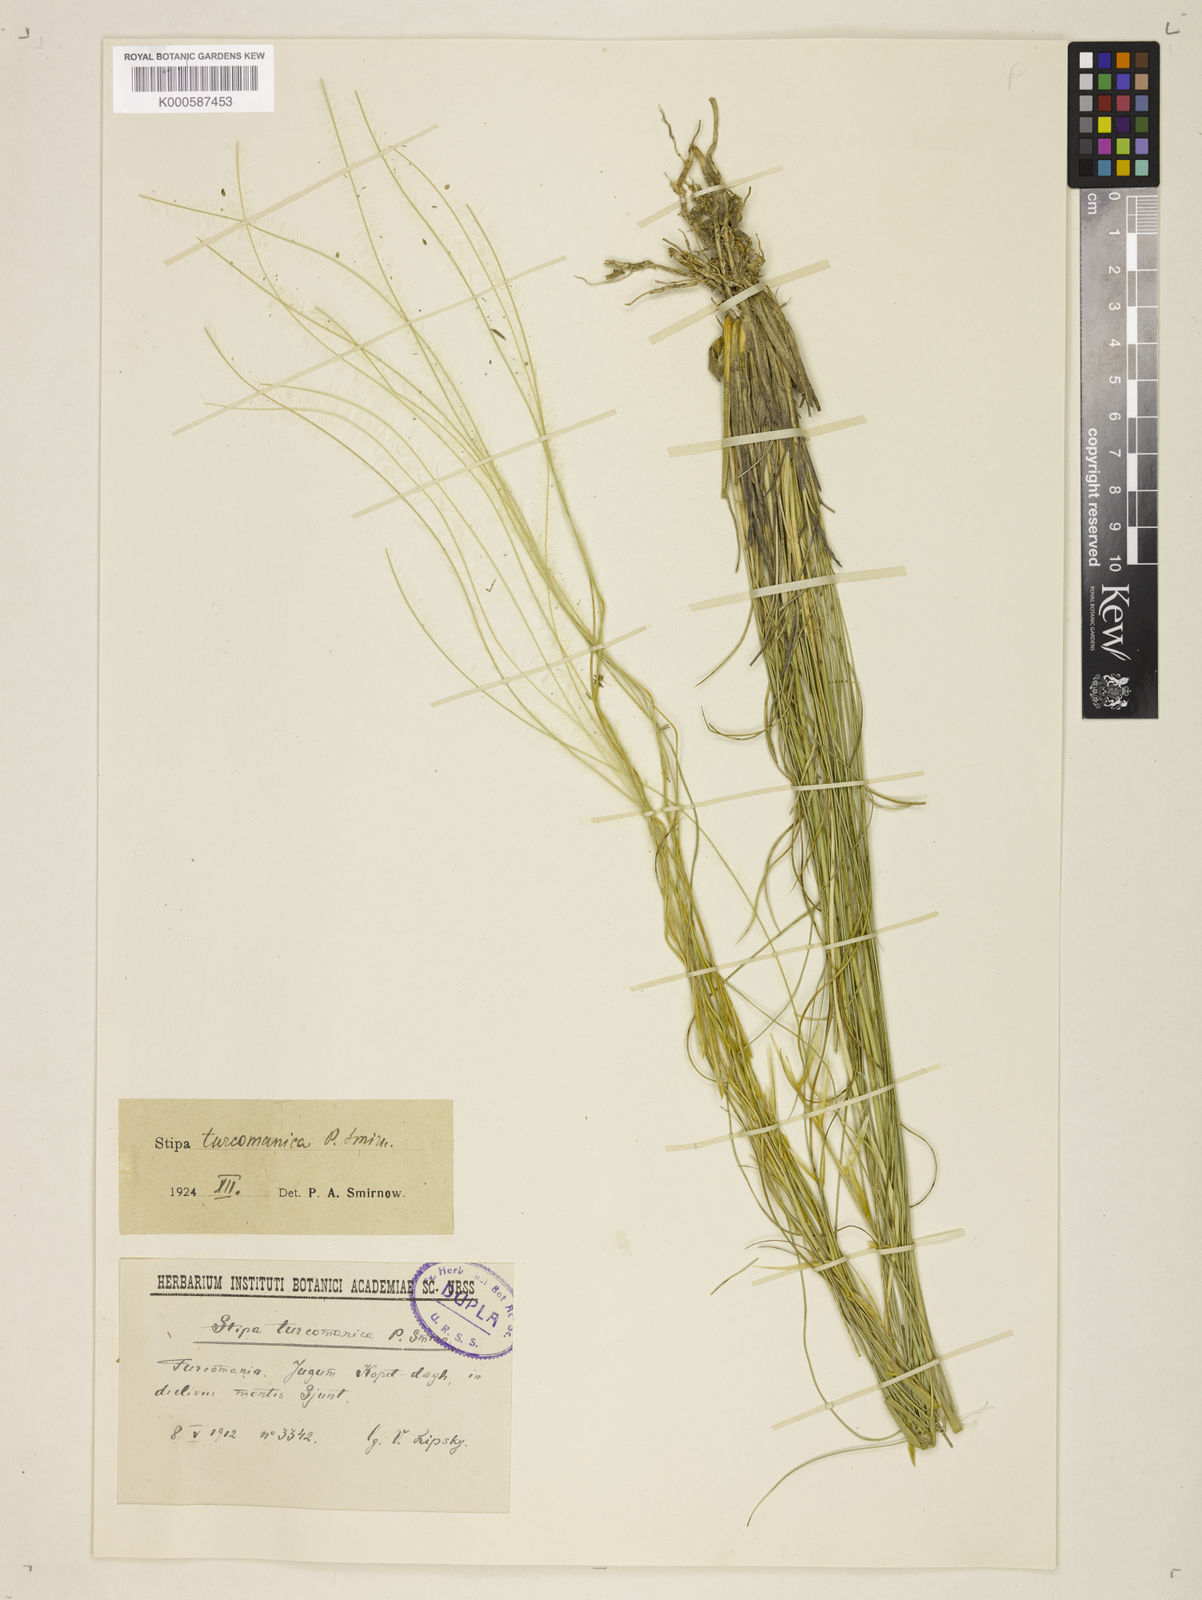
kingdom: Plantae
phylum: Tracheophyta
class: Liliopsida
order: Poales
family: Poaceae
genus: Stipa
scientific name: Stipa
